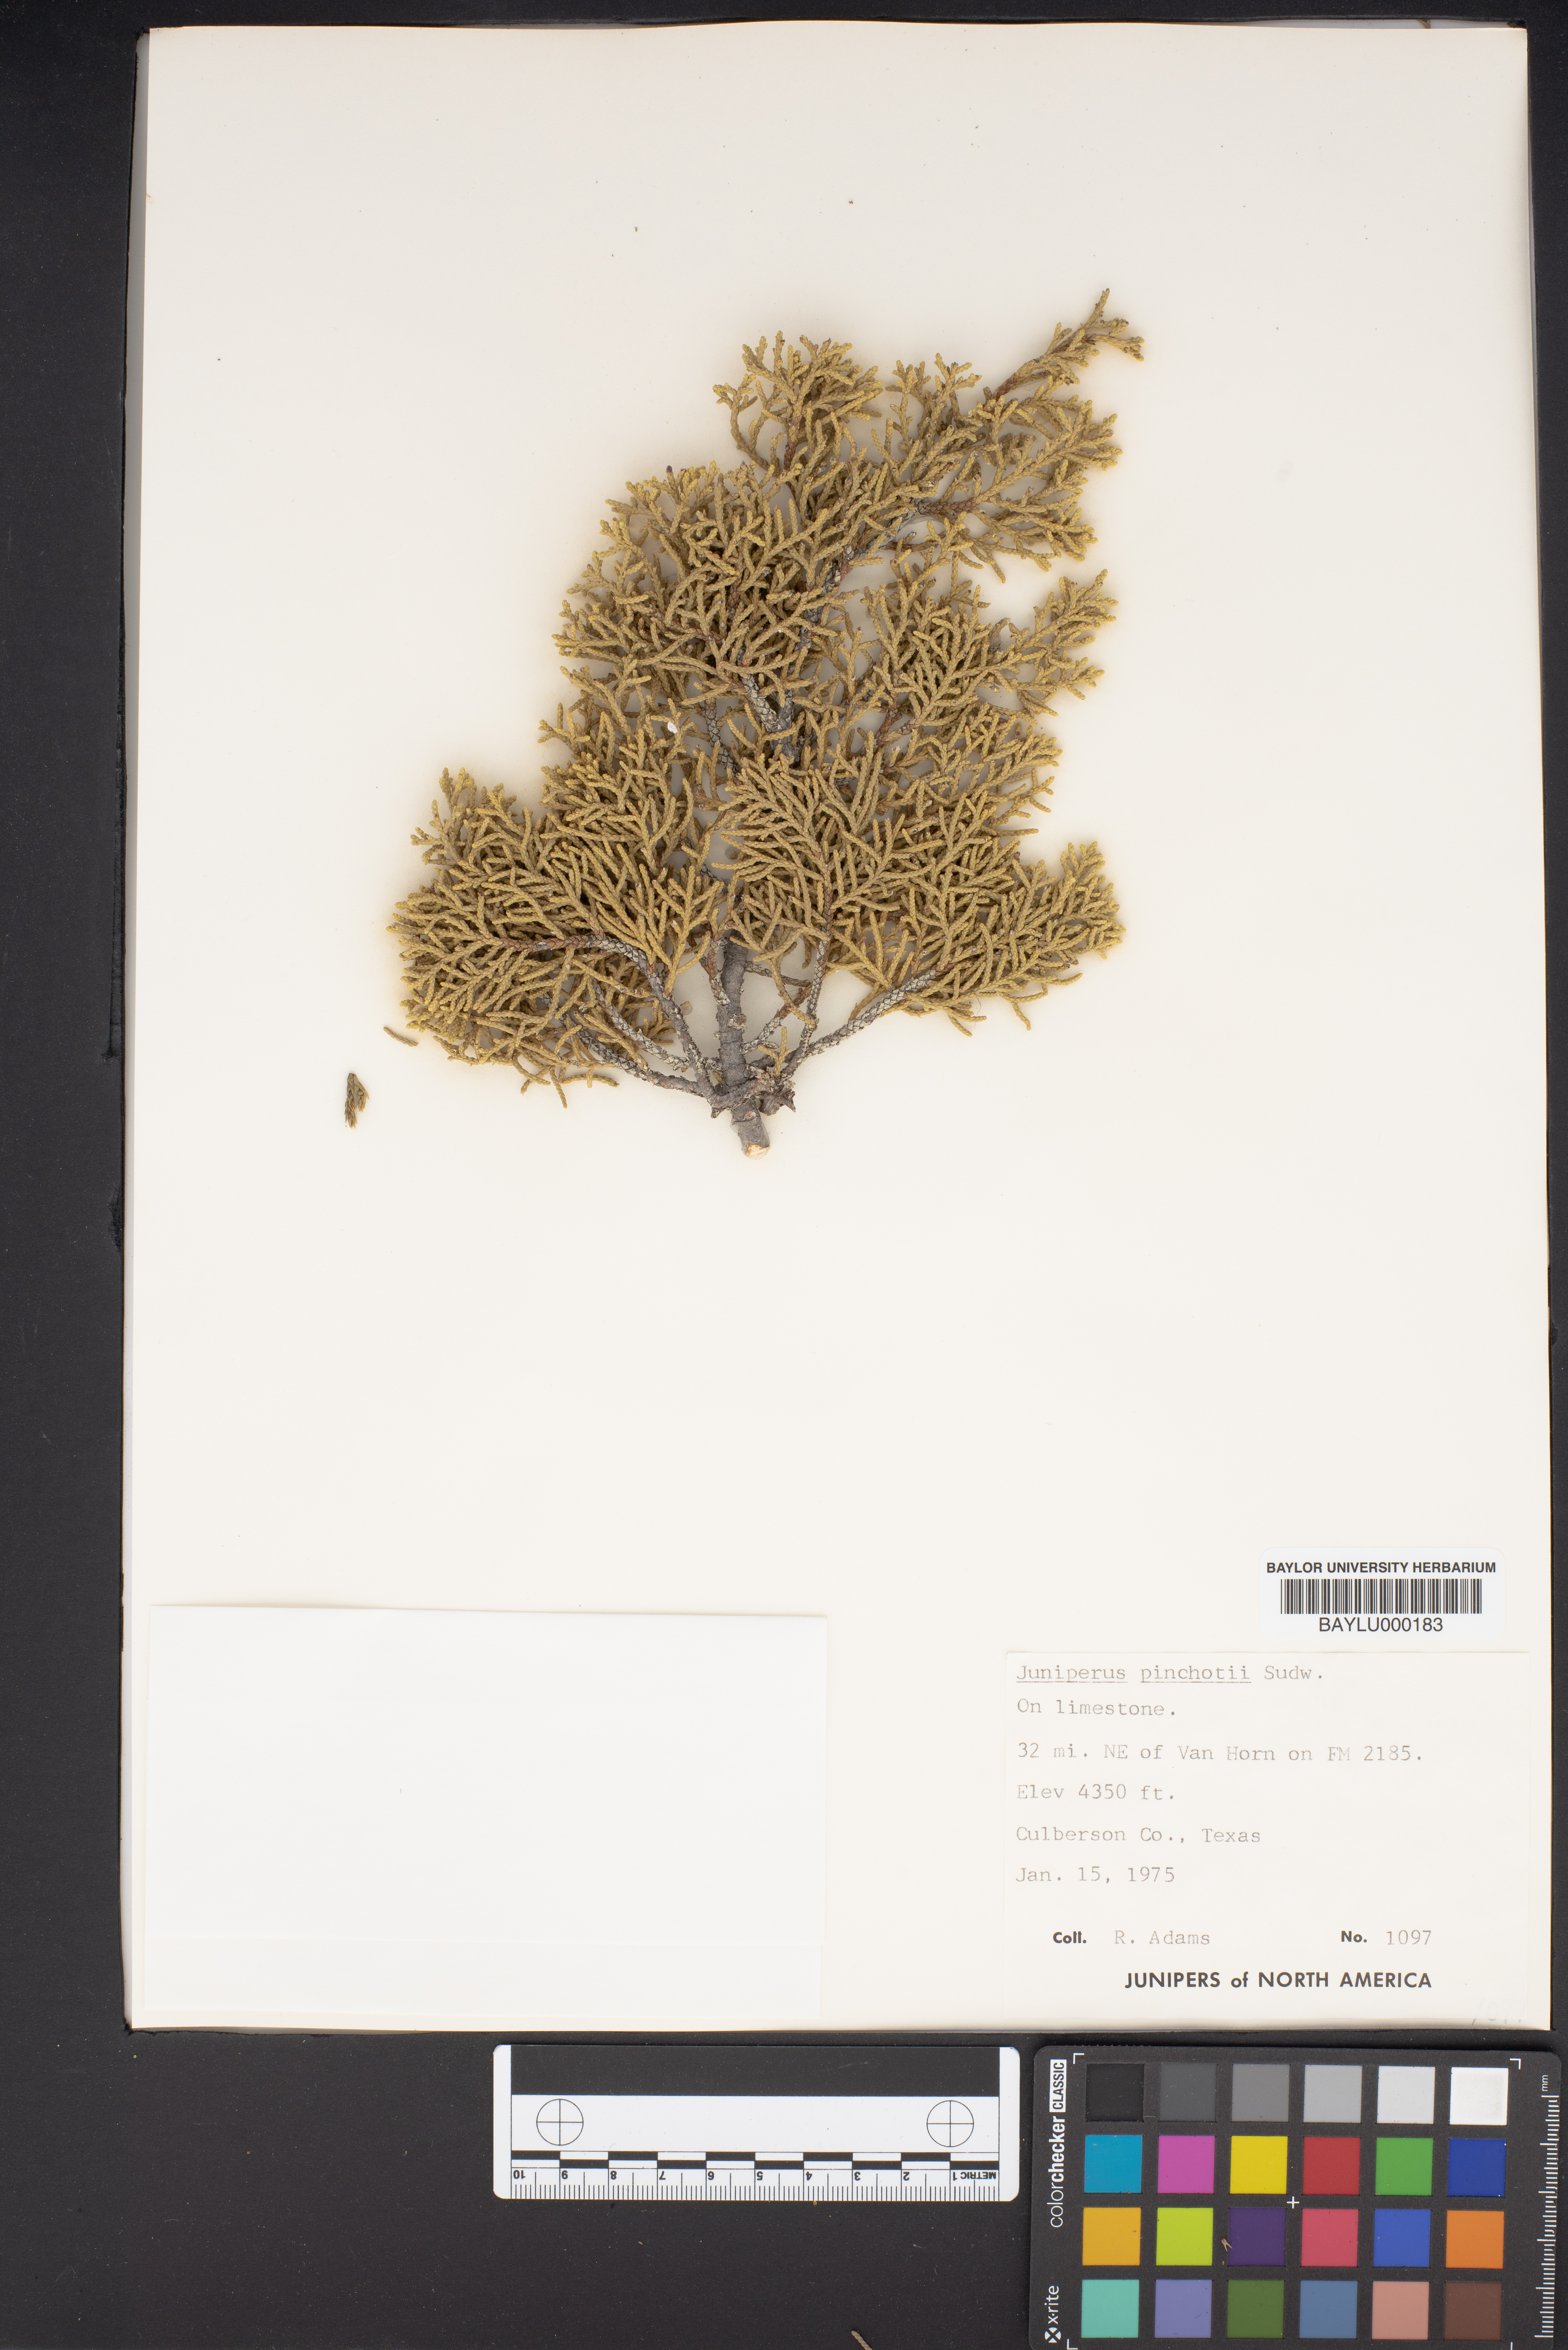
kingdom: Plantae
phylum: Tracheophyta
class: Pinopsida
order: Pinales
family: Cupressaceae
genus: Juniperus
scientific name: Juniperus pinchotii
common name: Pinchot juniper
